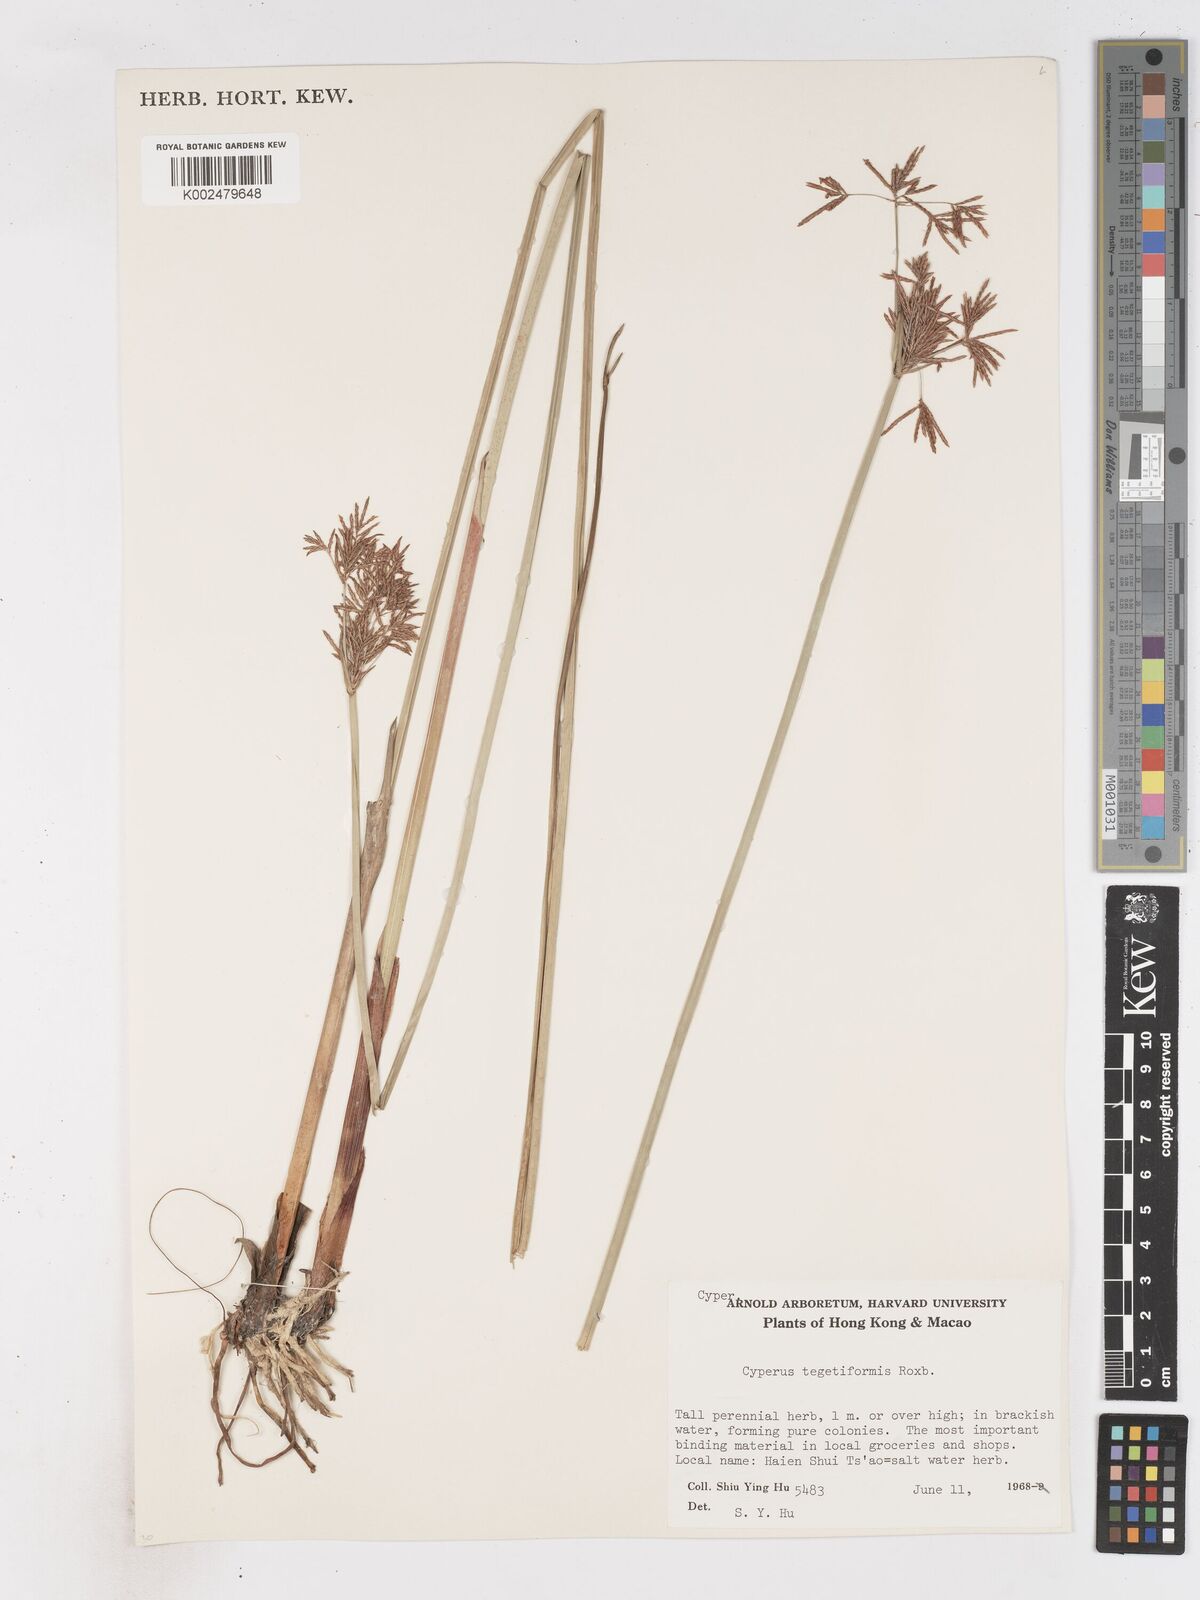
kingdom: Plantae
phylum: Tracheophyta
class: Liliopsida
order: Poales
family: Cyperaceae
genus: Cyperus
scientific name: Cyperus corymbosus
